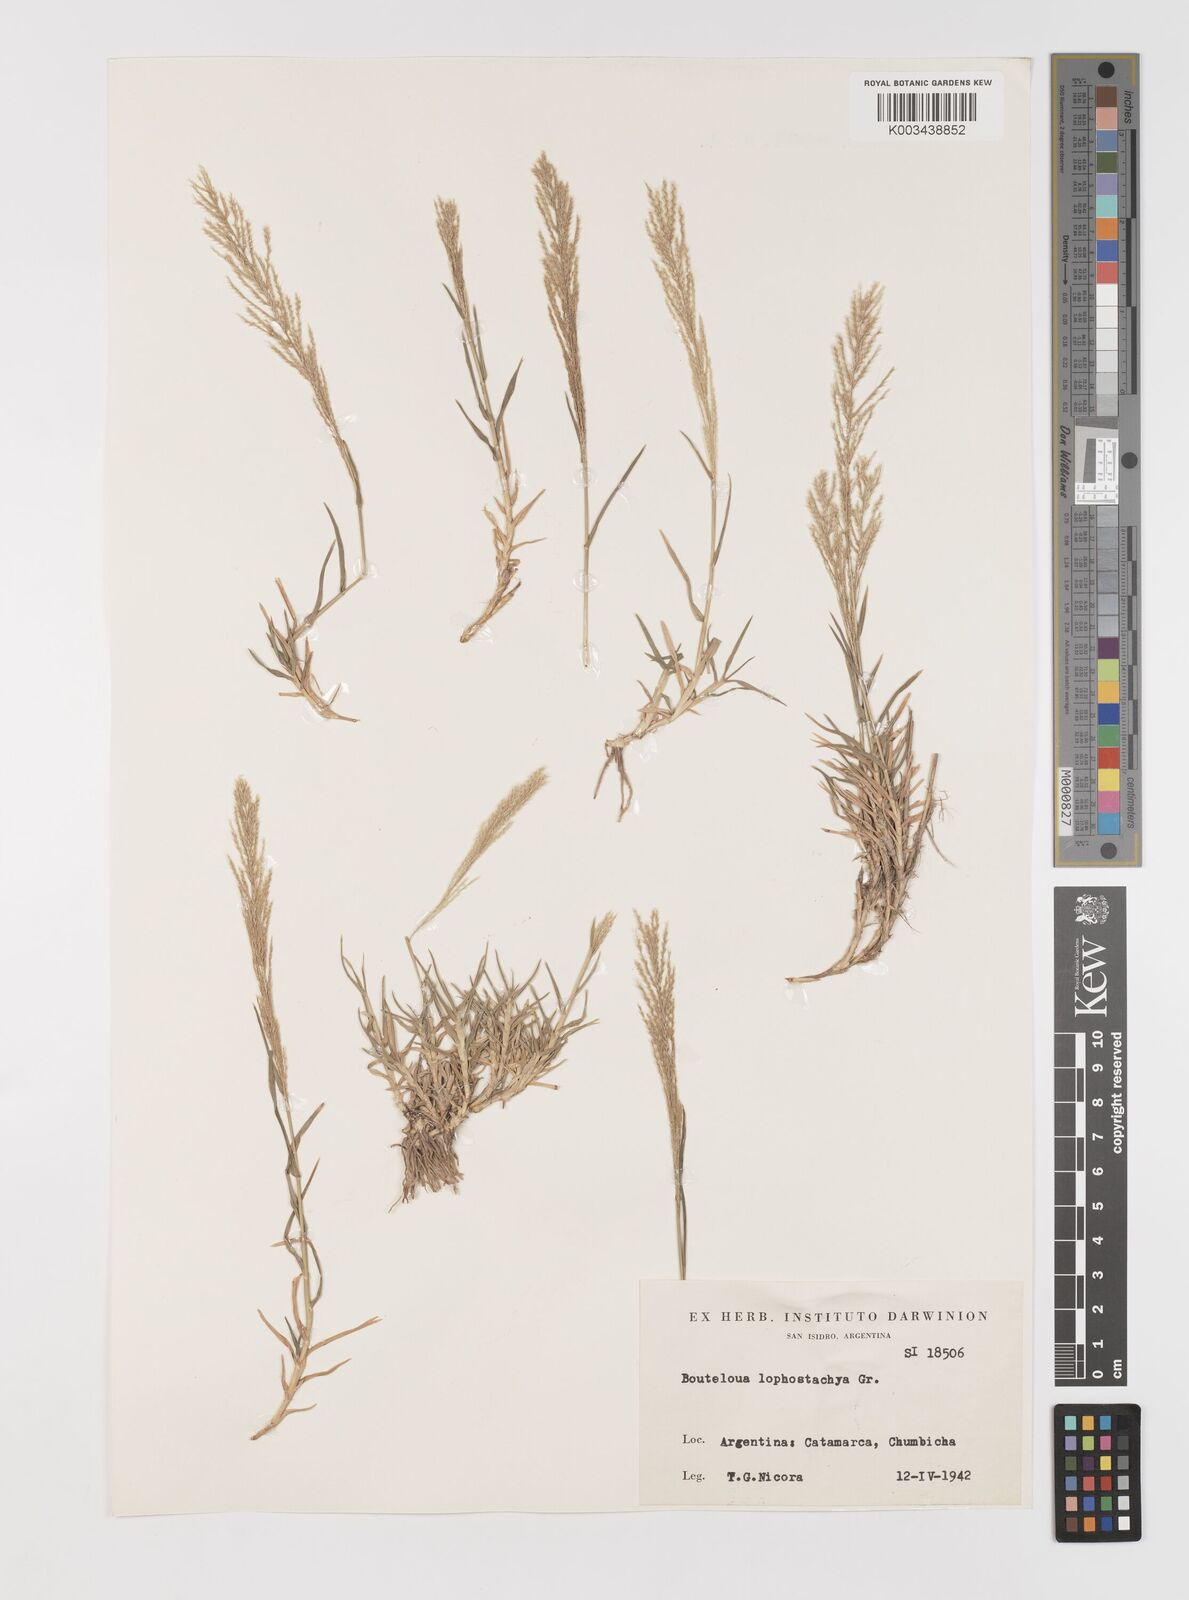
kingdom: Plantae
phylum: Tracheophyta
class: Liliopsida
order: Poales
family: Poaceae
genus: Neobouteloua
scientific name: Neobouteloua lophostachya
